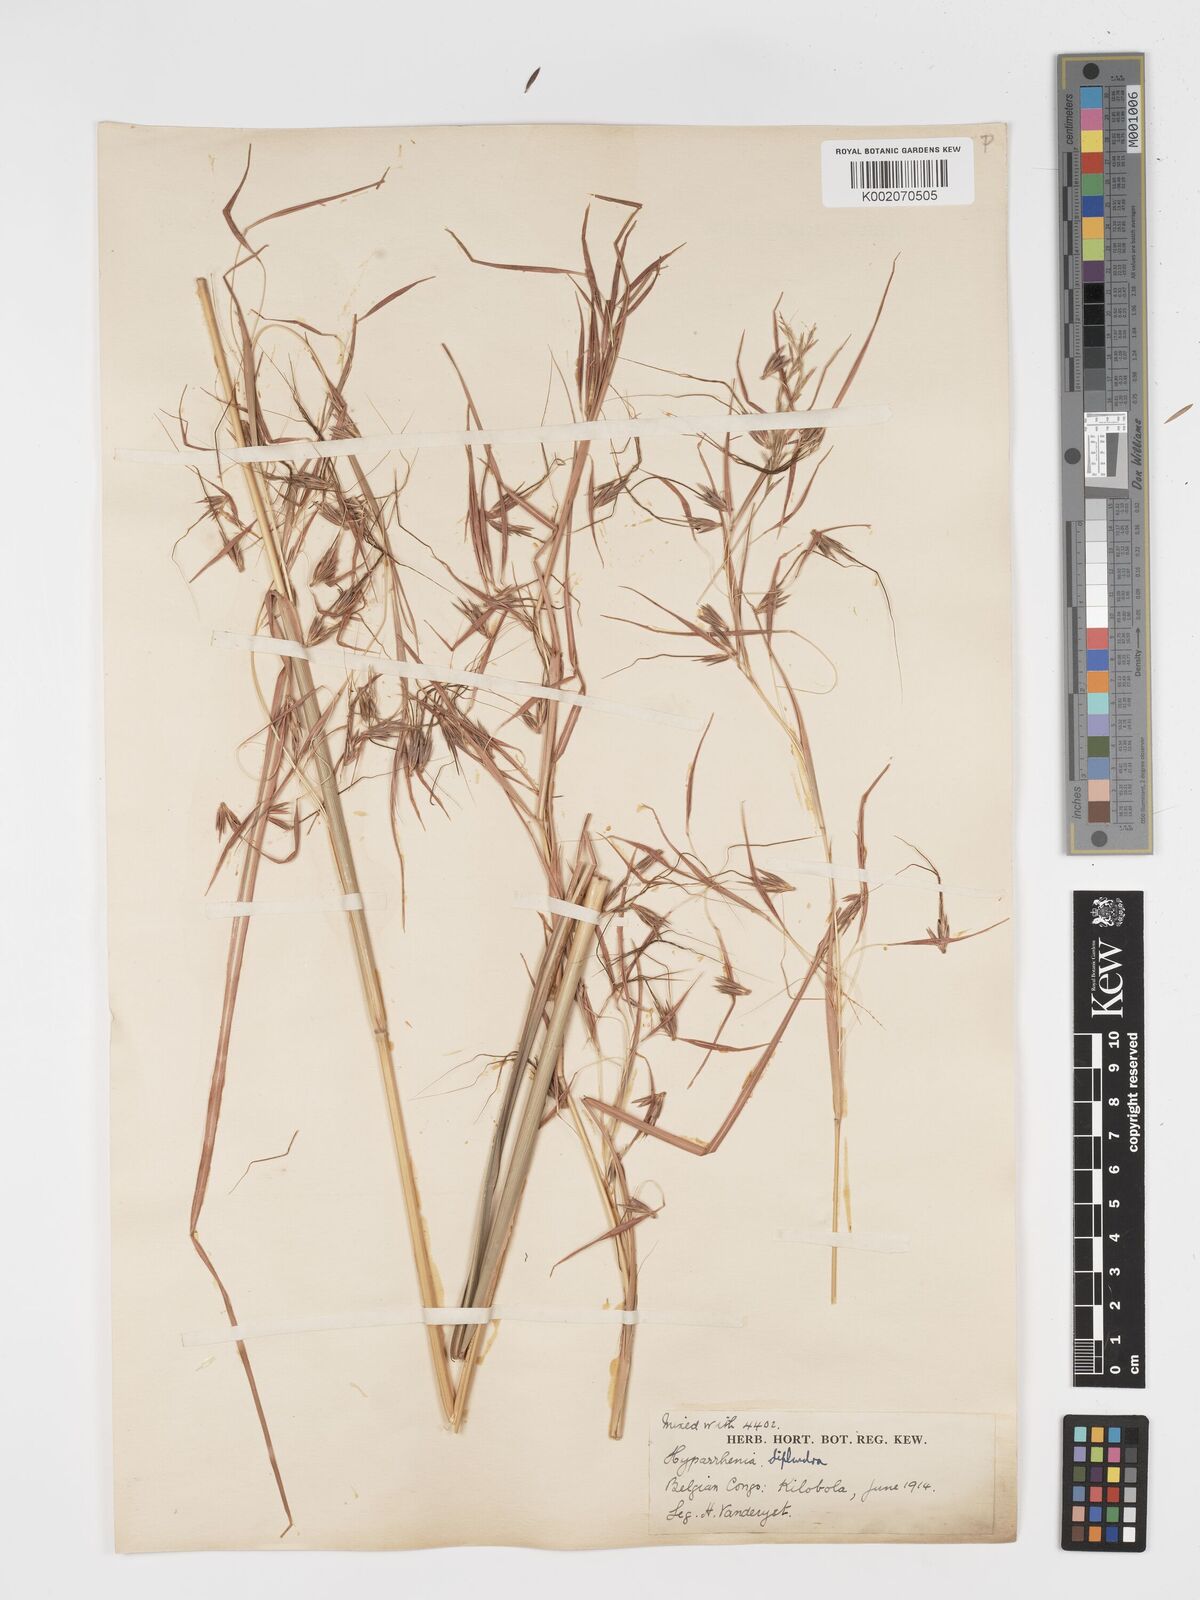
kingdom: Plantae
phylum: Tracheophyta
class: Liliopsida
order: Poales
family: Poaceae
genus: Hyparrhenia
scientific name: Hyparrhenia diplandra
